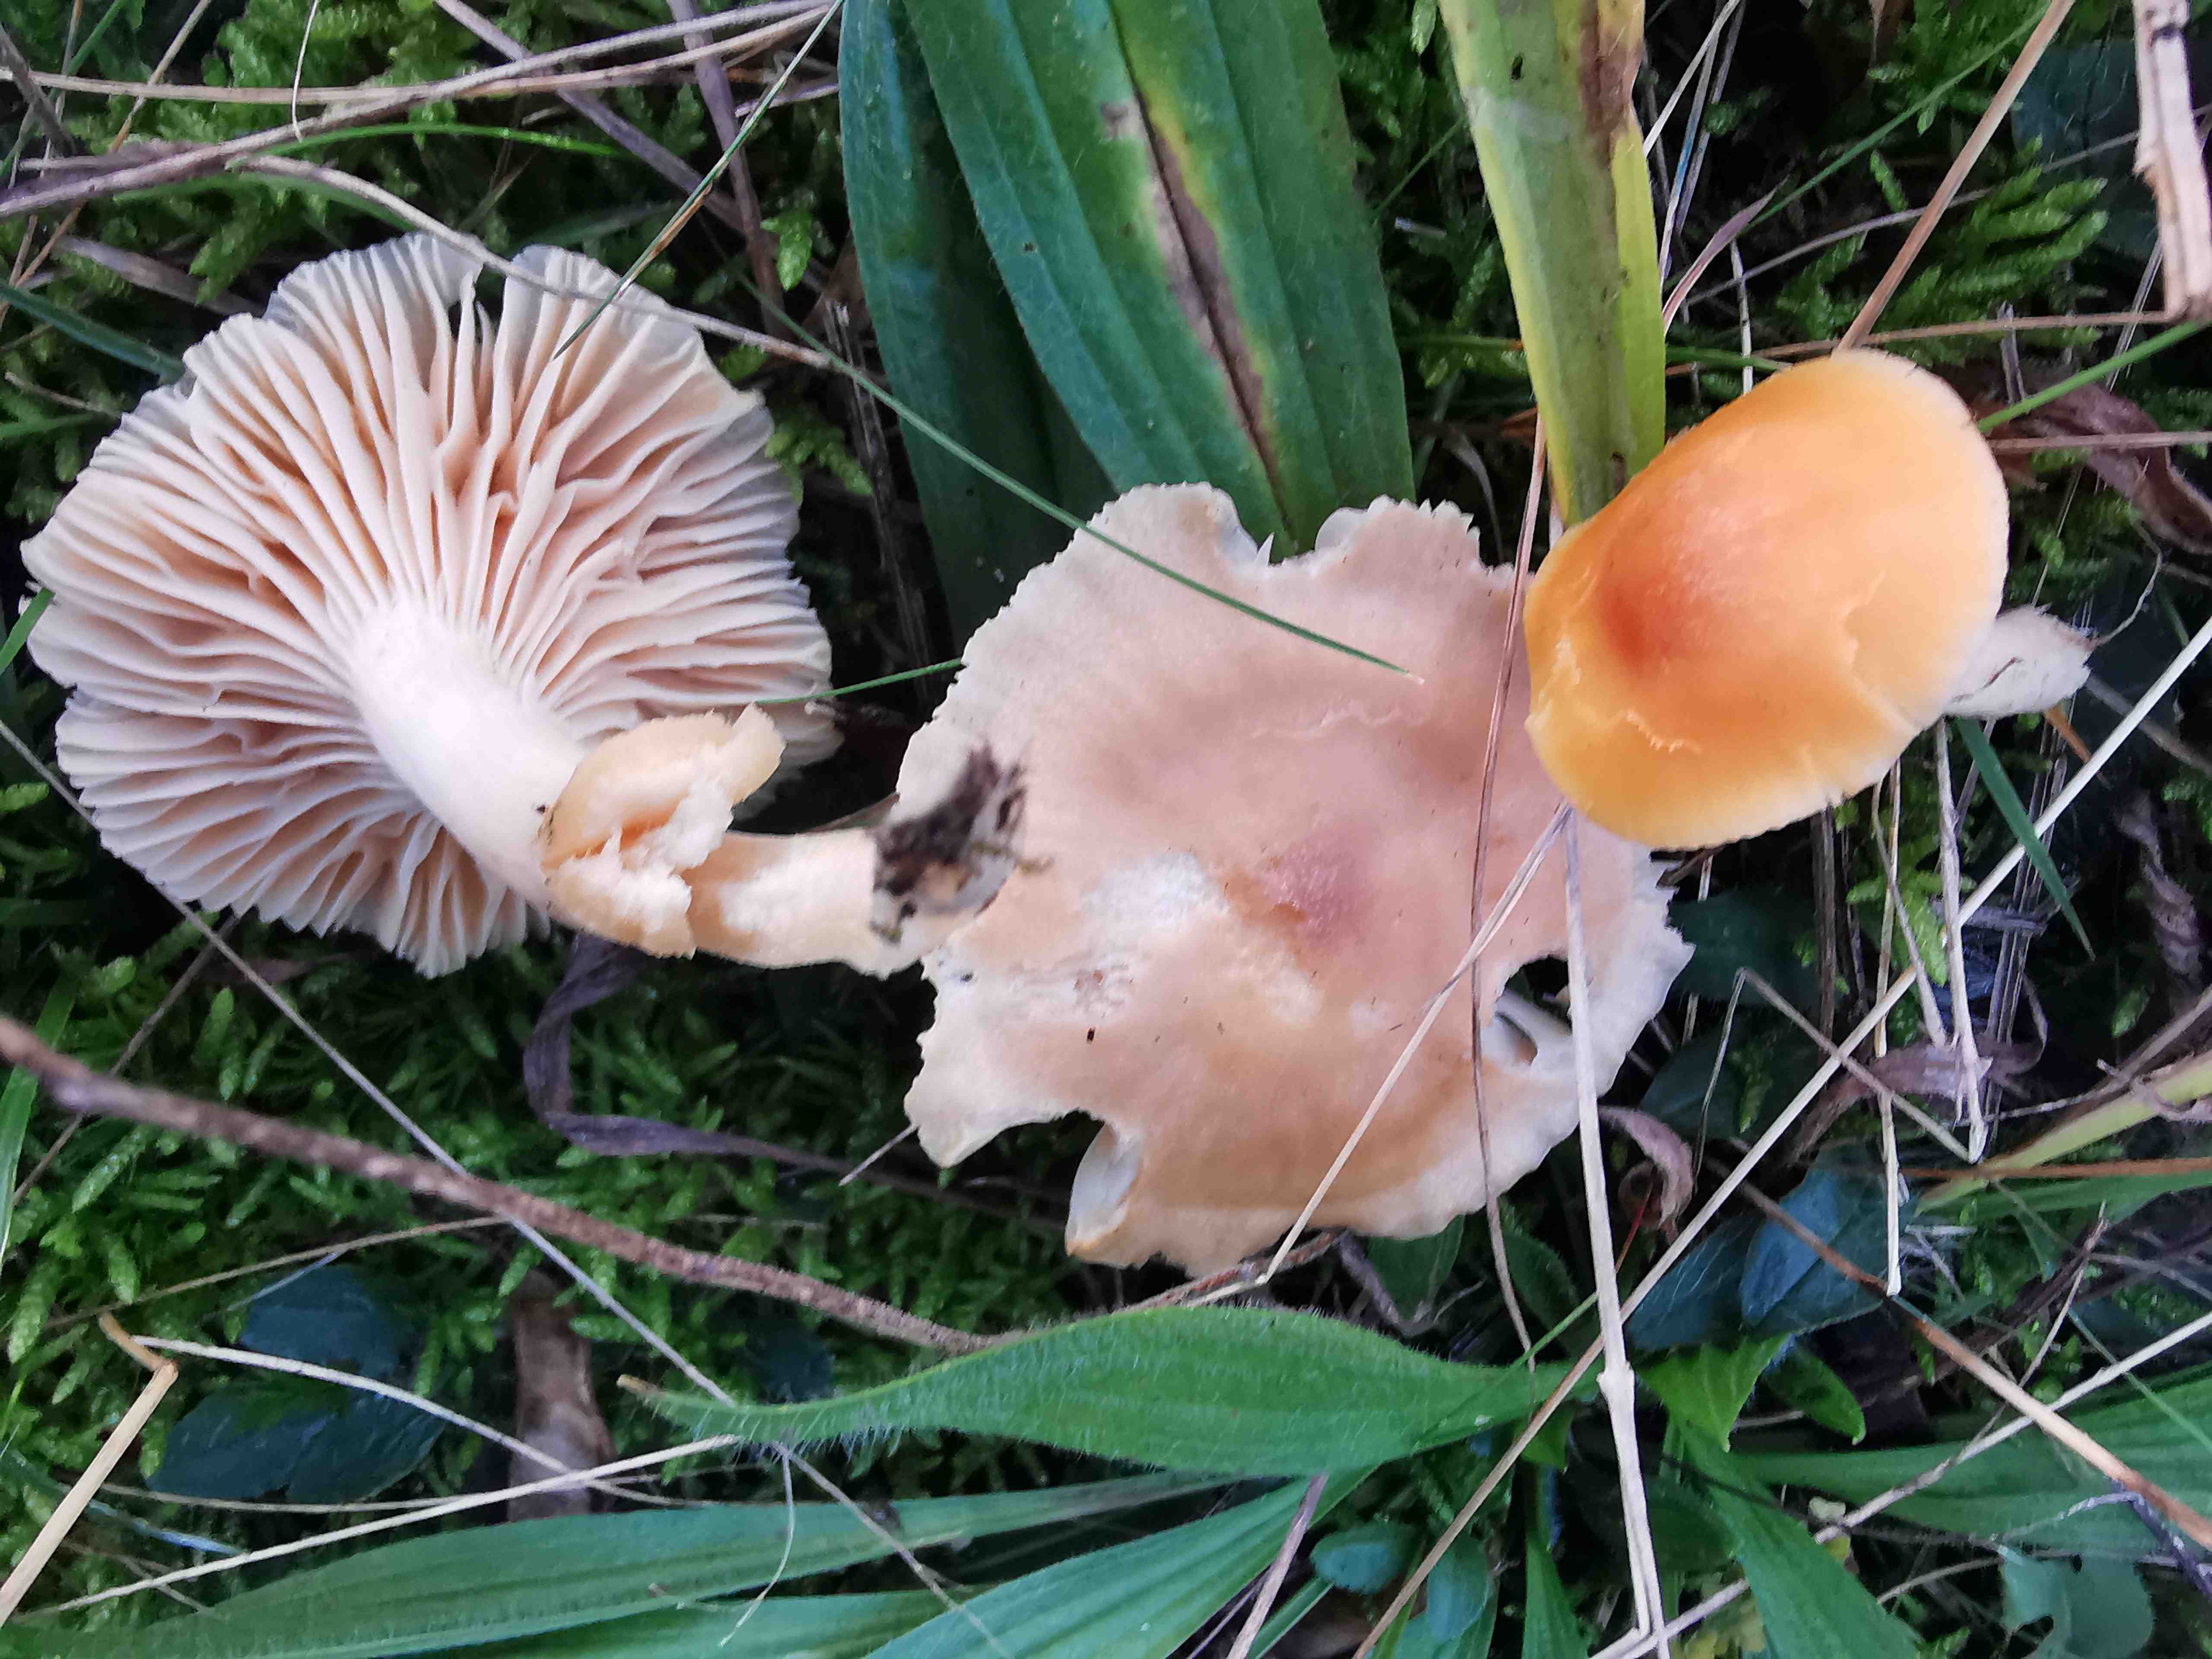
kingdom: Fungi
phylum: Basidiomycota
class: Agaricomycetes
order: Agaricales
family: Hygrophoraceae
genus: Cuphophyllus
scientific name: Cuphophyllus pratensis
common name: eng-vokshat
